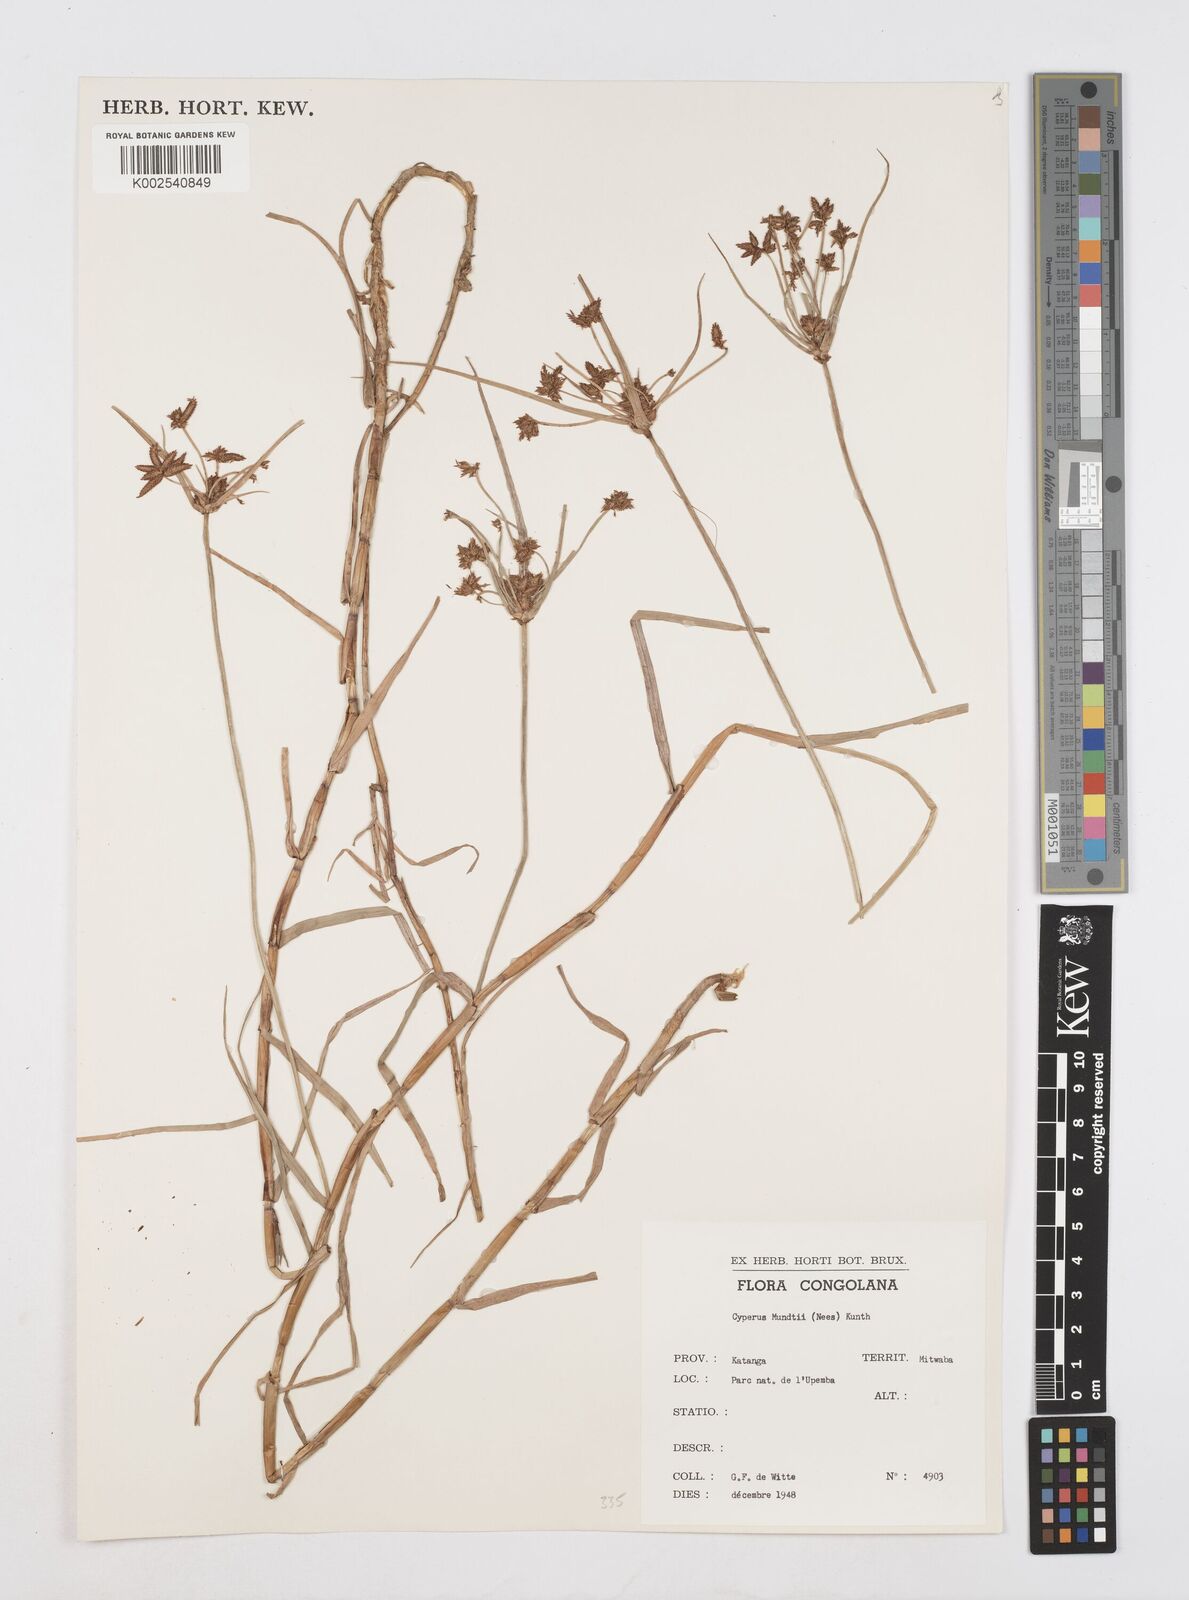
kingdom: Plantae
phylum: Tracheophyta
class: Liliopsida
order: Poales
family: Cyperaceae
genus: Cyperus
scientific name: Cyperus mundii
